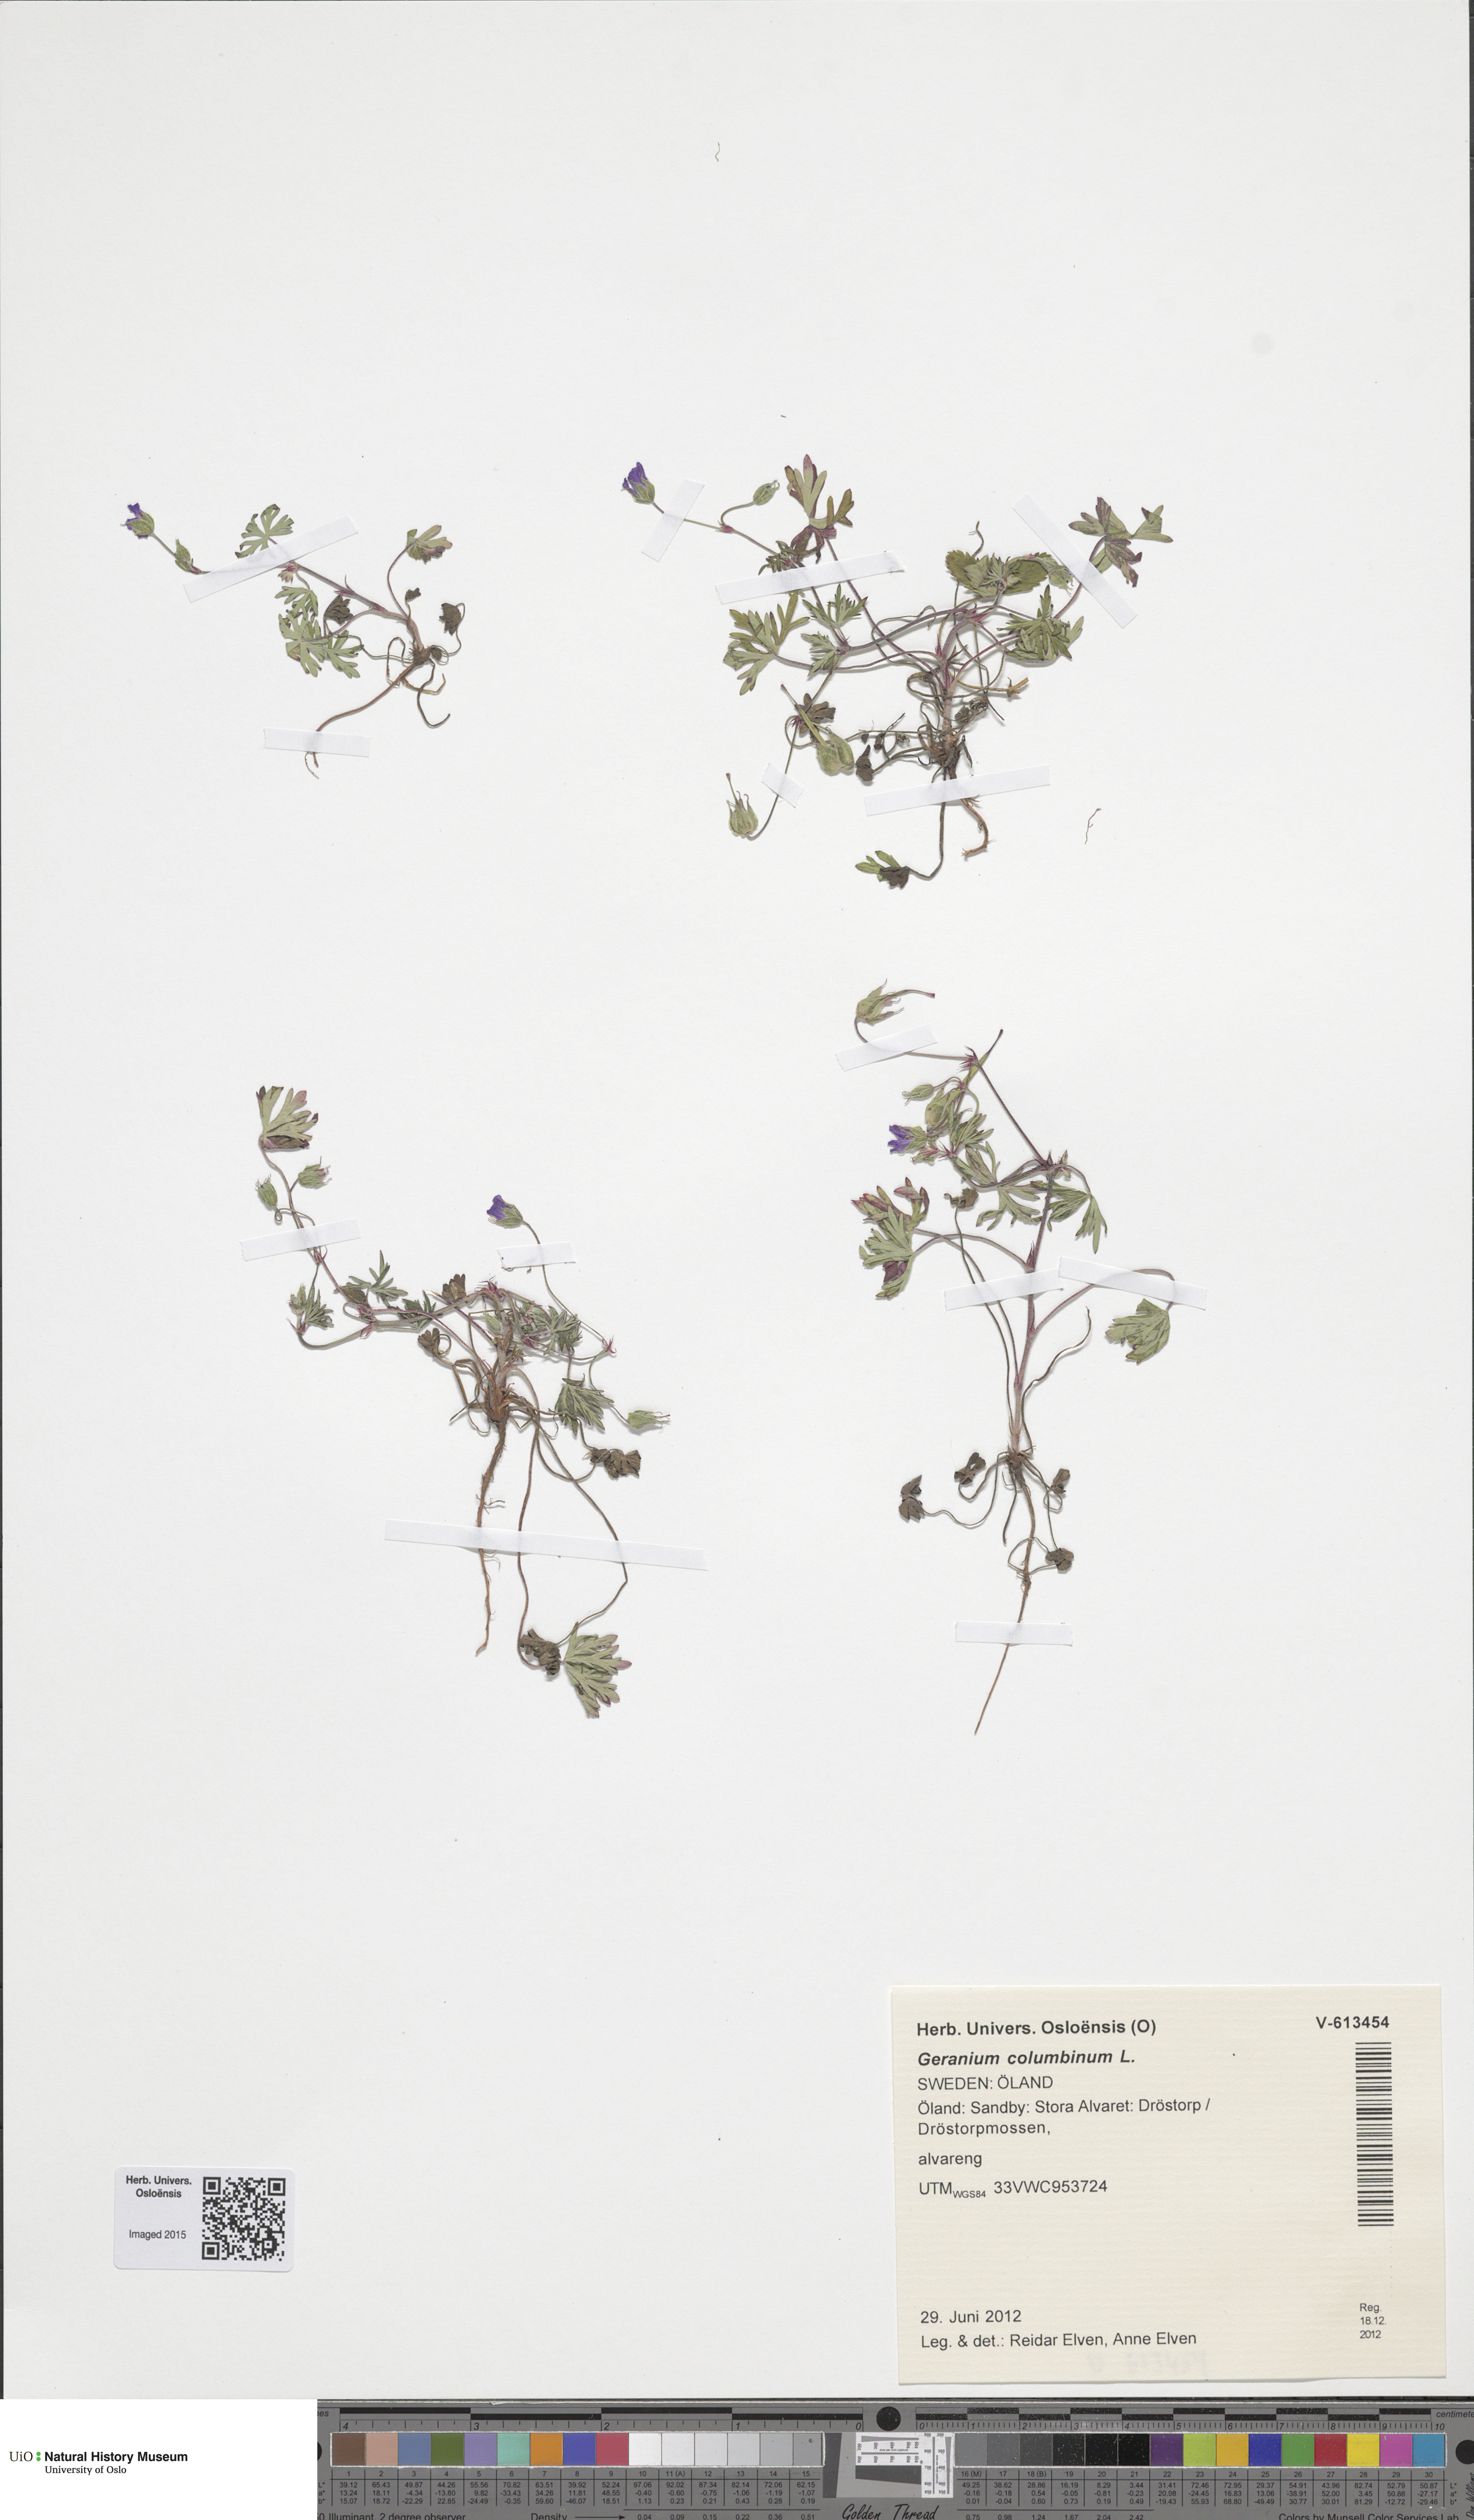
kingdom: Plantae
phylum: Tracheophyta
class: Magnoliopsida
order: Geraniales
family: Geraniaceae
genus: Geranium
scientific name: Geranium columbinum
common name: Long-stalked crane's-bill
